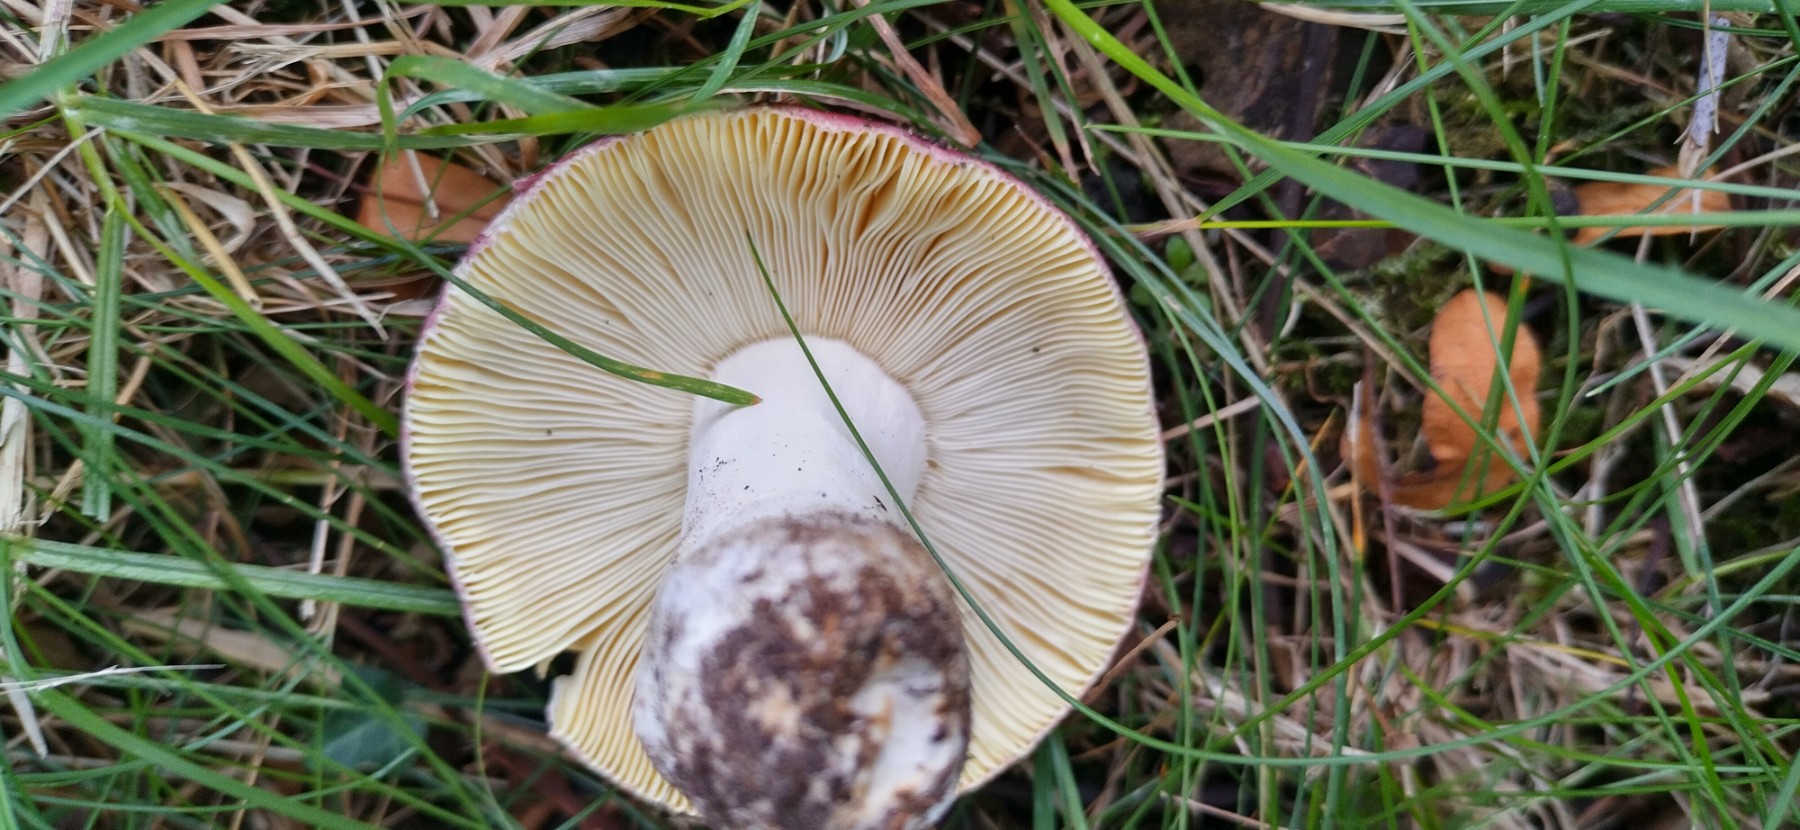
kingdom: Fungi
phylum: Basidiomycota
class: Agaricomycetes
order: Russulales
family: Russulaceae
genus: Russula
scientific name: Russula seperina
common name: rødmende skørhat
